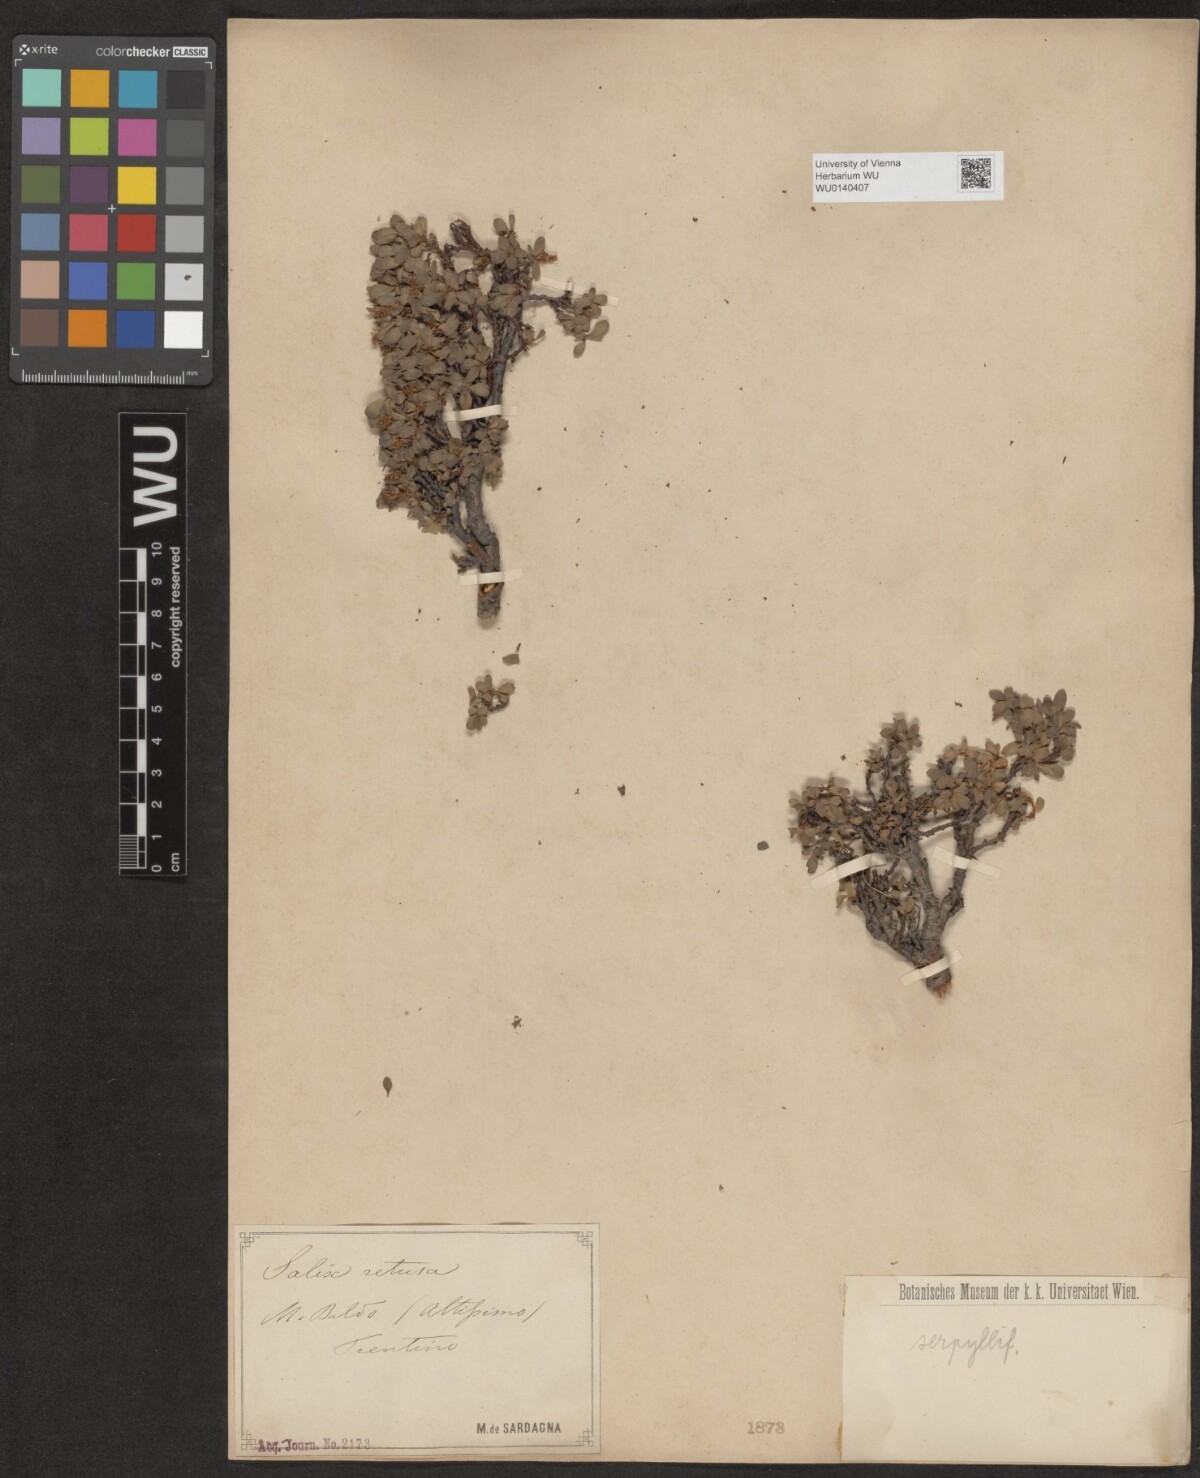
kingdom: Plantae
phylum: Tracheophyta
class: Magnoliopsida
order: Malpighiales
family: Salicaceae
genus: Salix
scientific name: Salix serpillifolia
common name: Thyme-leaf willow
